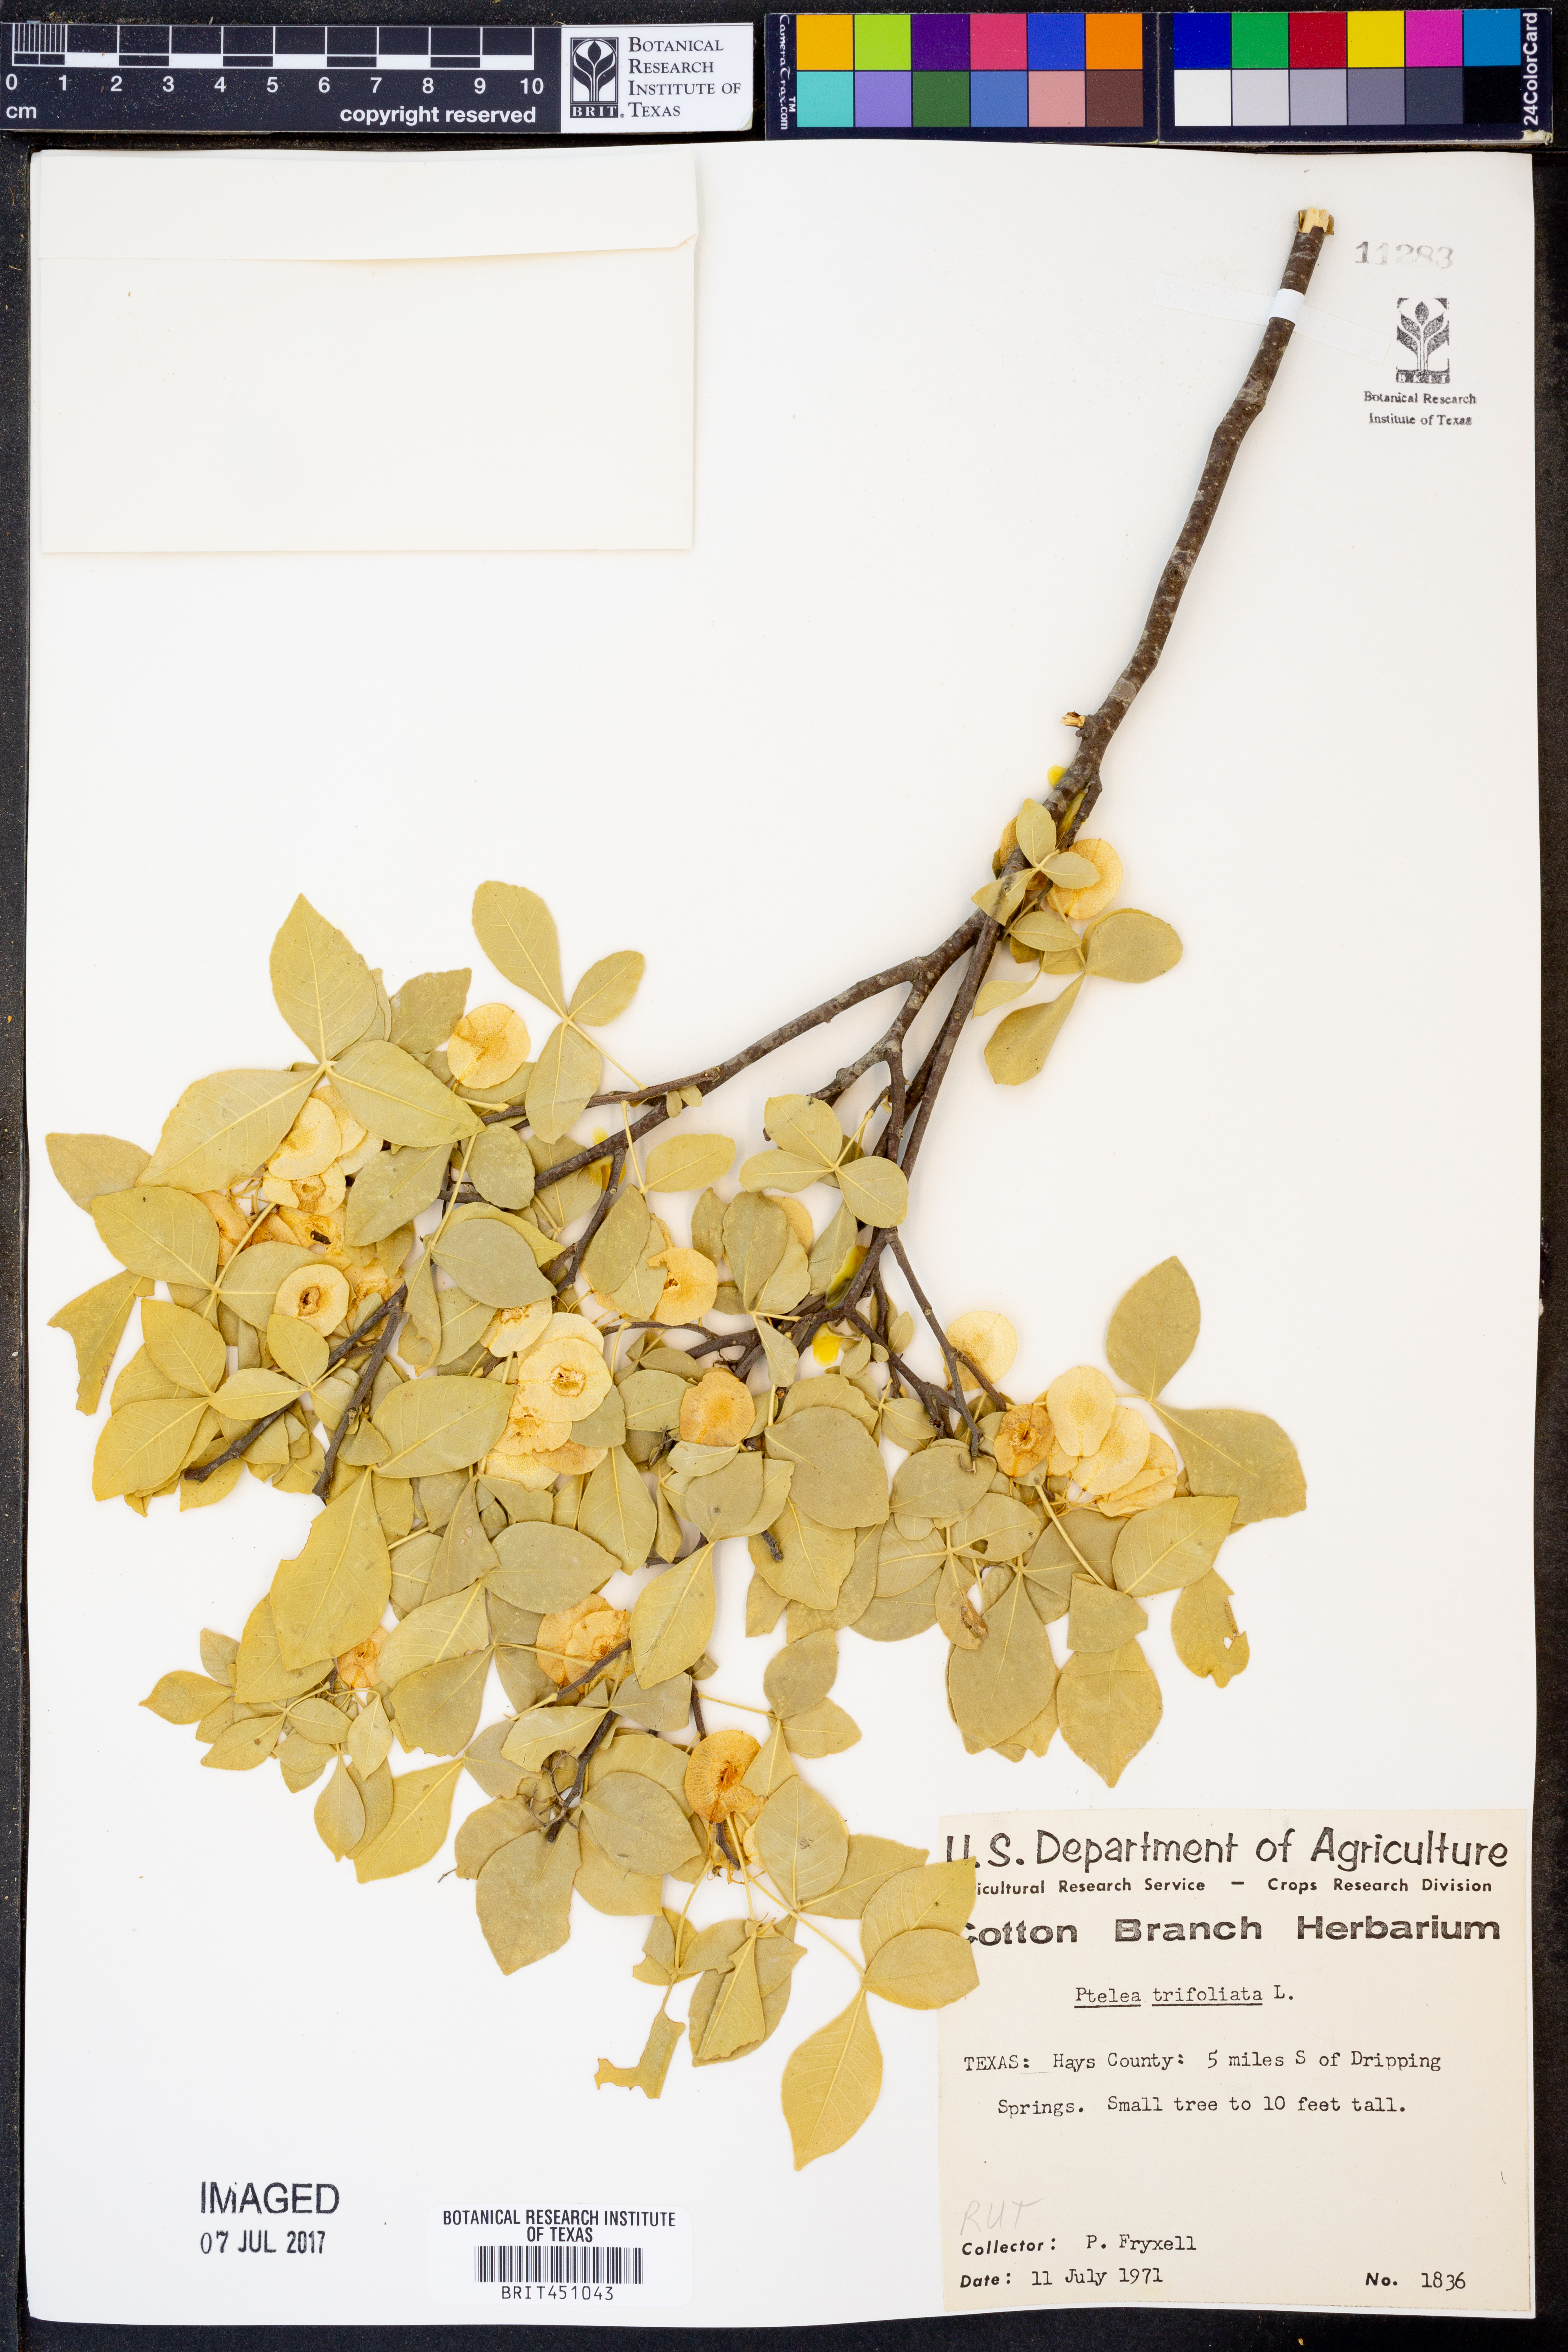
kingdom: Plantae
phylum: Tracheophyta
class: Magnoliopsida
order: Sapindales
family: Rutaceae
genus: Ptelea
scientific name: Ptelea trifoliata
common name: Common hop-tree
